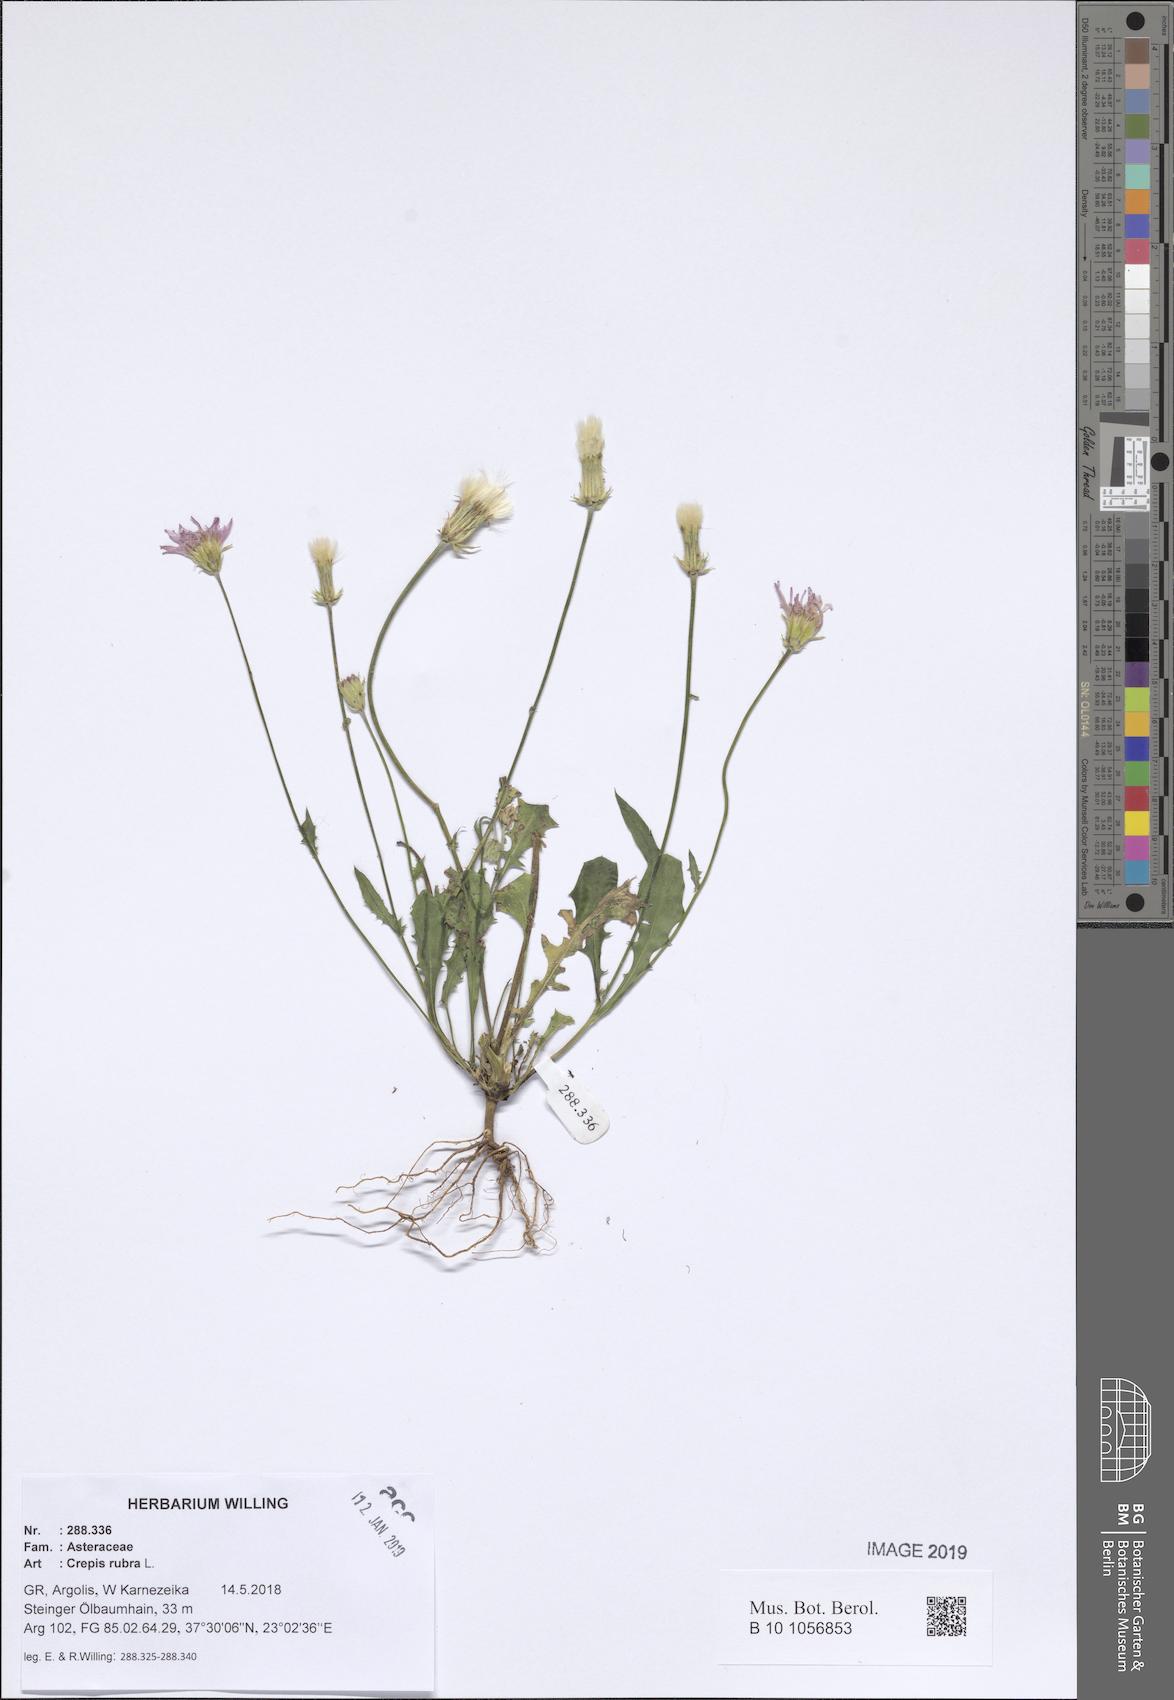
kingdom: Plantae
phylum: Tracheophyta
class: Magnoliopsida
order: Asterales
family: Asteraceae
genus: Crepis
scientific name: Crepis rubra
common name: Pink hawk's-beard
